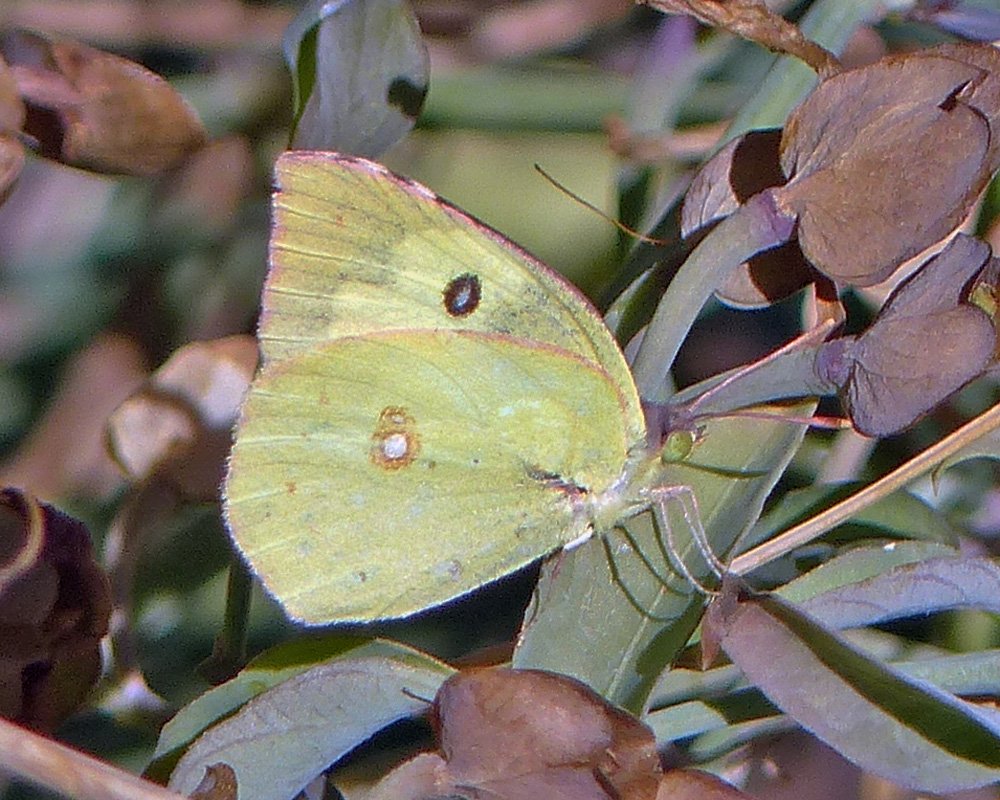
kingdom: Animalia
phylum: Arthropoda
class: Insecta
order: Lepidoptera
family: Pieridae
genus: Zerene
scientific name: Zerene cesonia
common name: Southern Dogface
